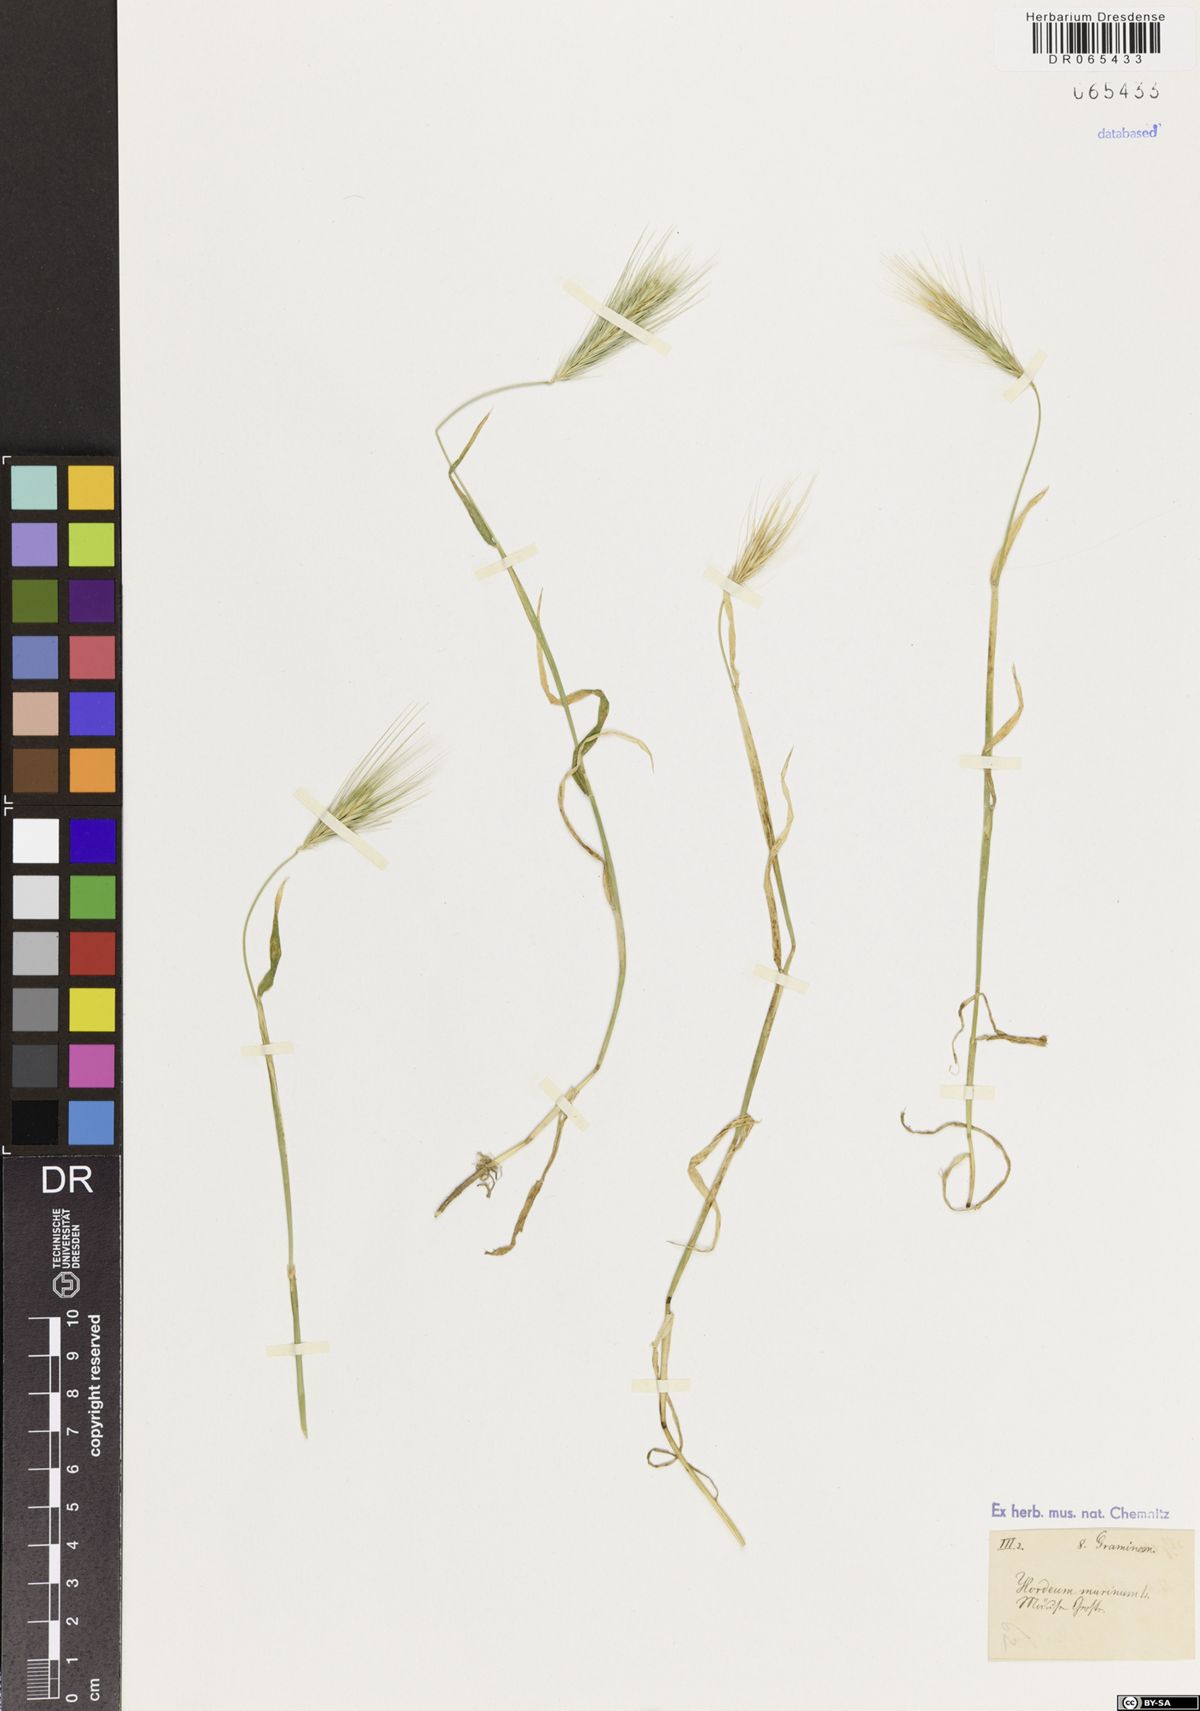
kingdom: Plantae
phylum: Tracheophyta
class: Liliopsida
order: Poales
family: Poaceae
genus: Hordeum
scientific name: Hordeum murinum
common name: Wall barley
